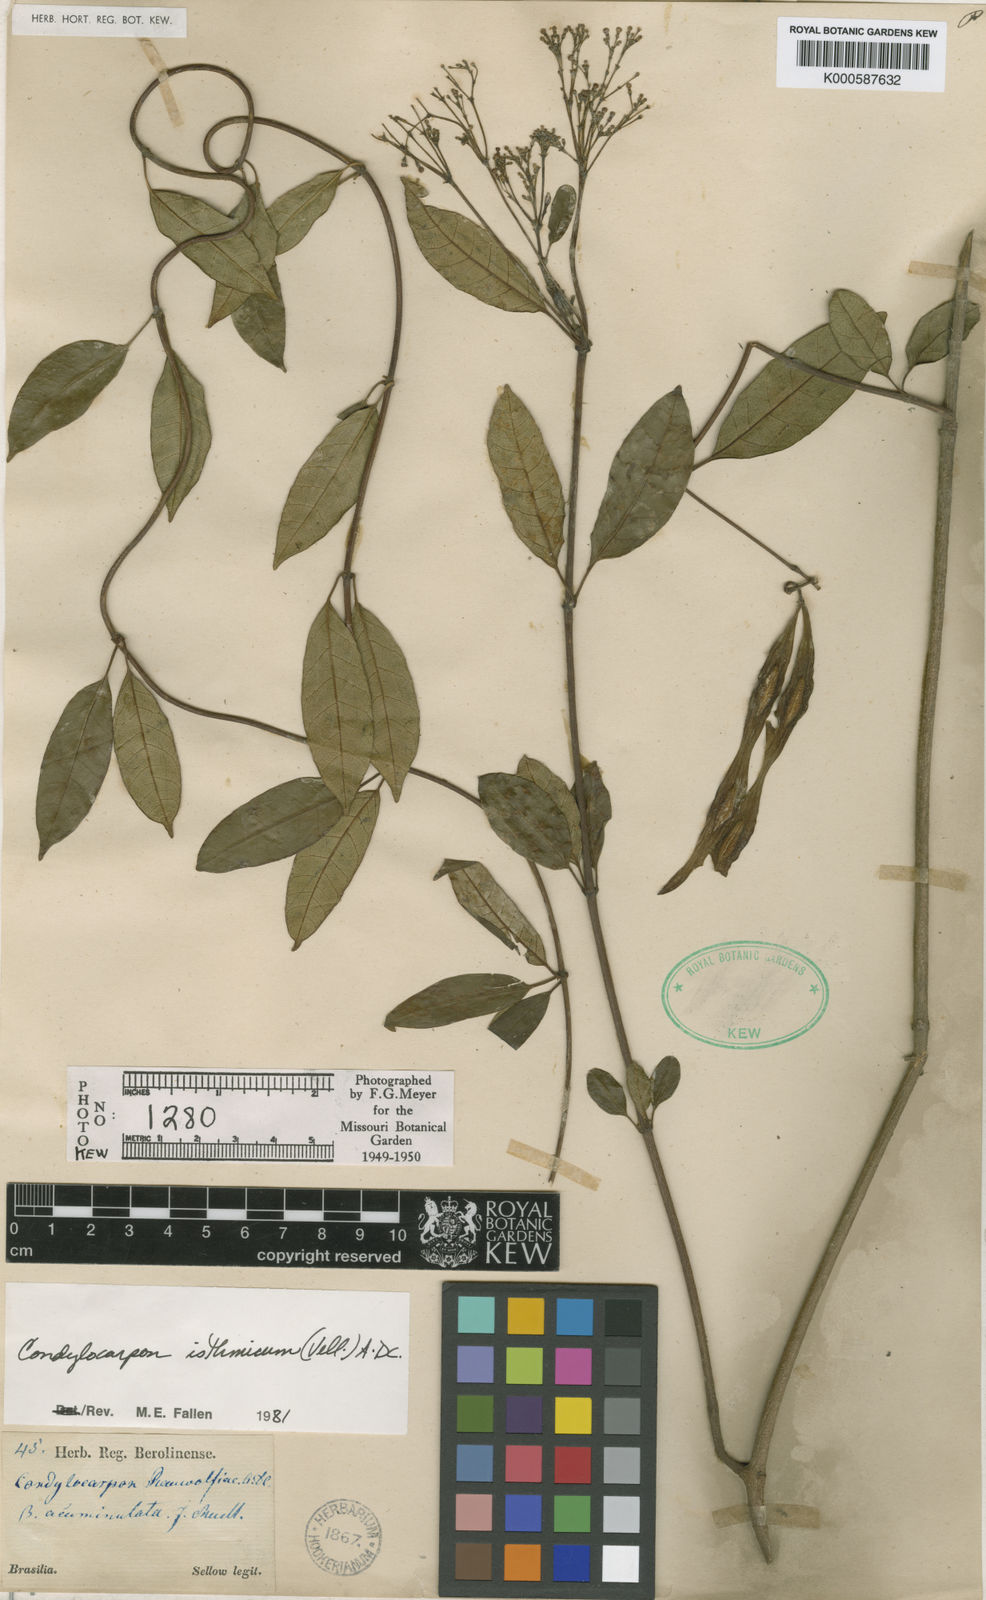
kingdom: Plantae
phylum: Tracheophyta
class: Magnoliopsida
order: Gentianales
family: Apocynaceae
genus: Condylocarpon
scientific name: Condylocarpon isthmicum
